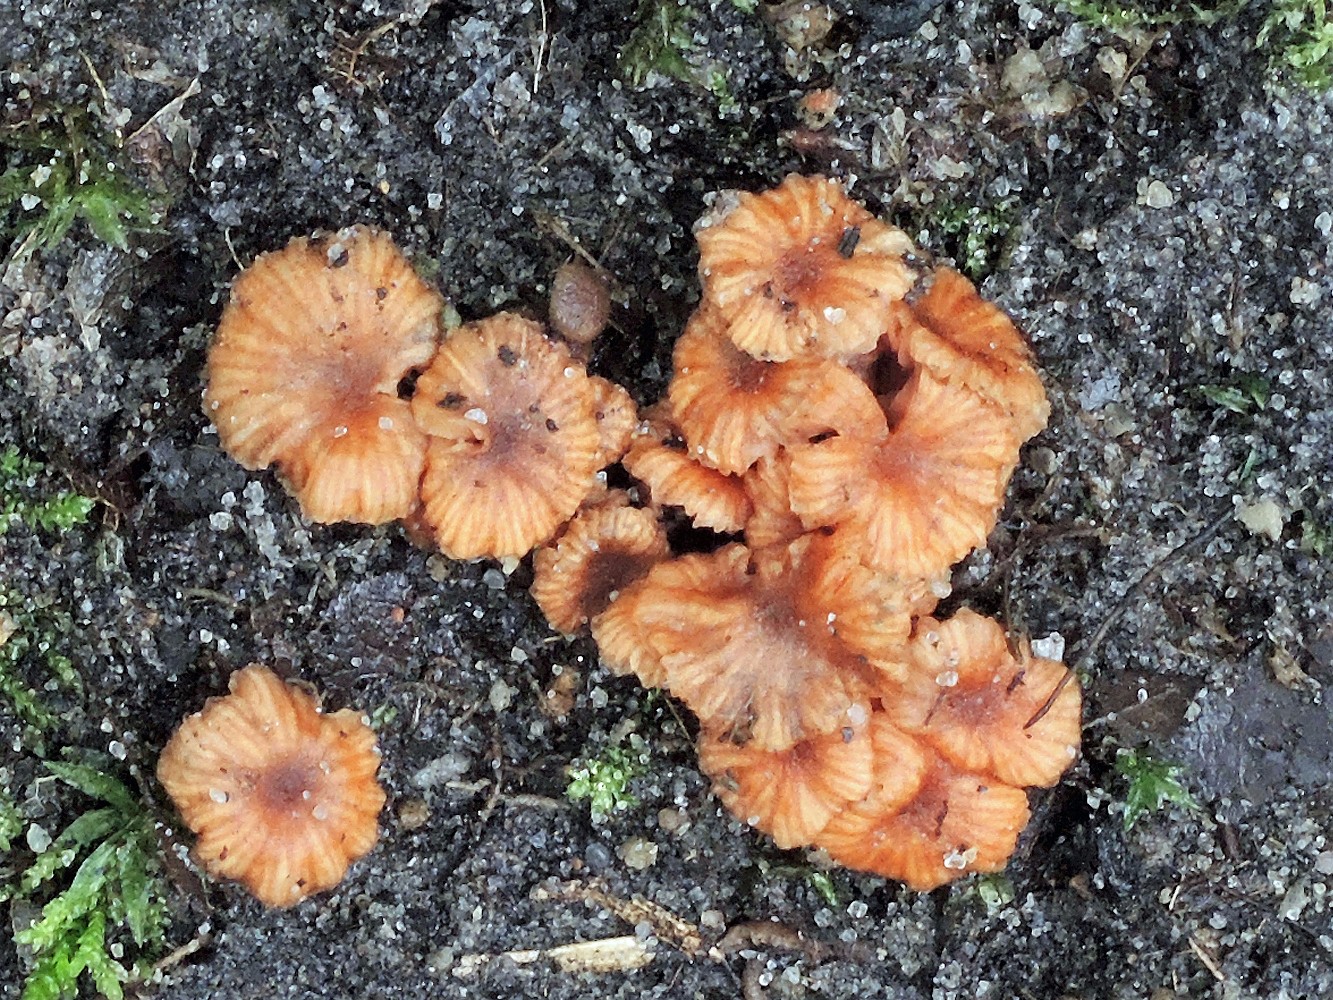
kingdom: Fungi
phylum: Basidiomycota
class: Agaricomycetes
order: Agaricales
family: Hydnangiaceae
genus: Laccaria
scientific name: Laccaria tortilis
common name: krybende ametysthat
